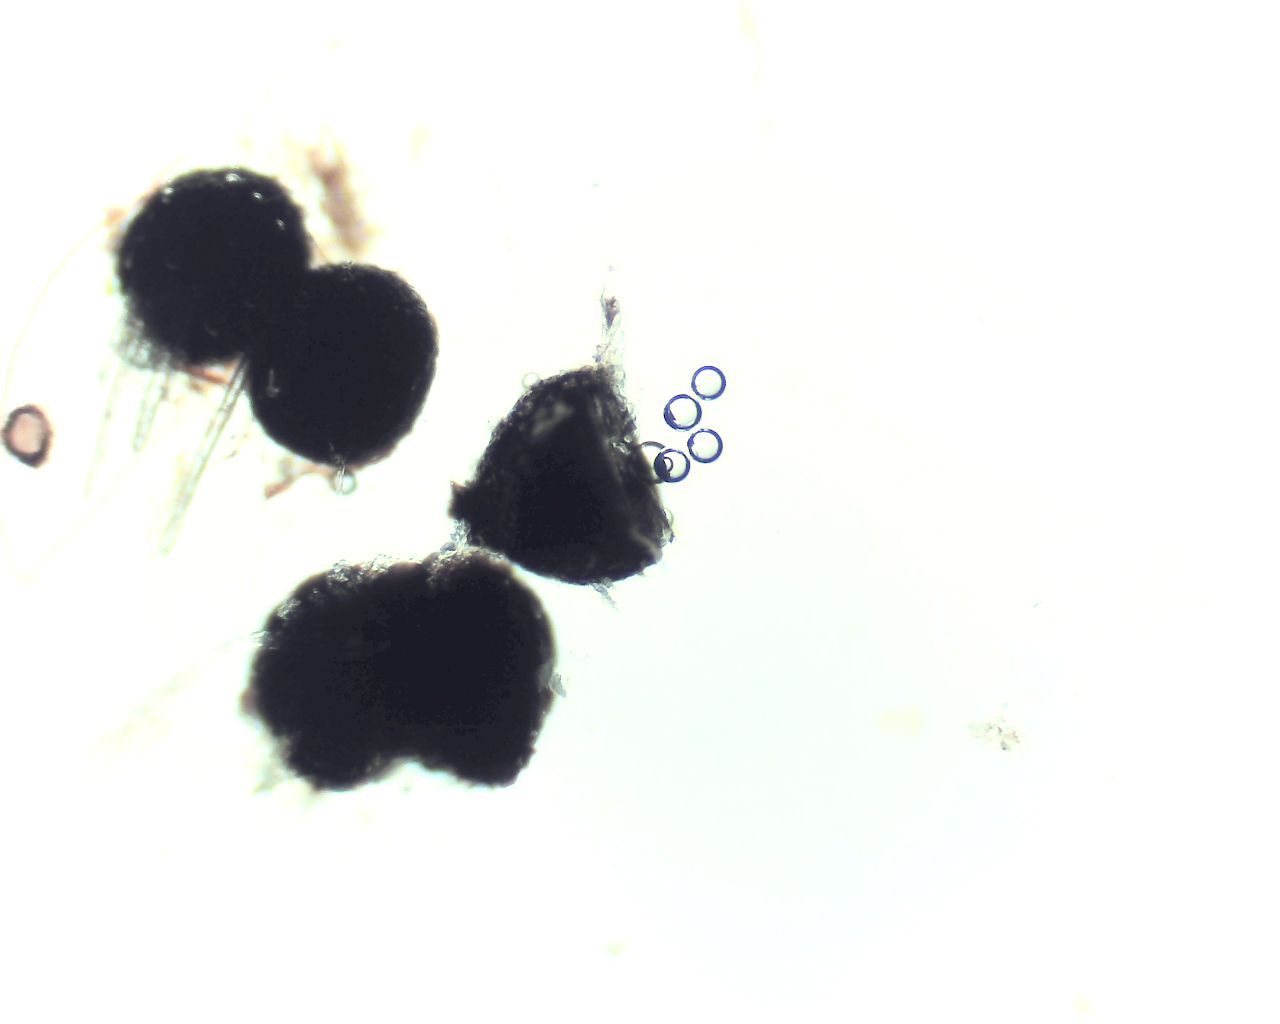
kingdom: Fungi
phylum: Ascomycota
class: Dothideomycetes
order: Pleosporales
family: Leptosphaeriaceae
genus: Leptosphaeria
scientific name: Leptosphaeria acuta
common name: spids kulkegle
